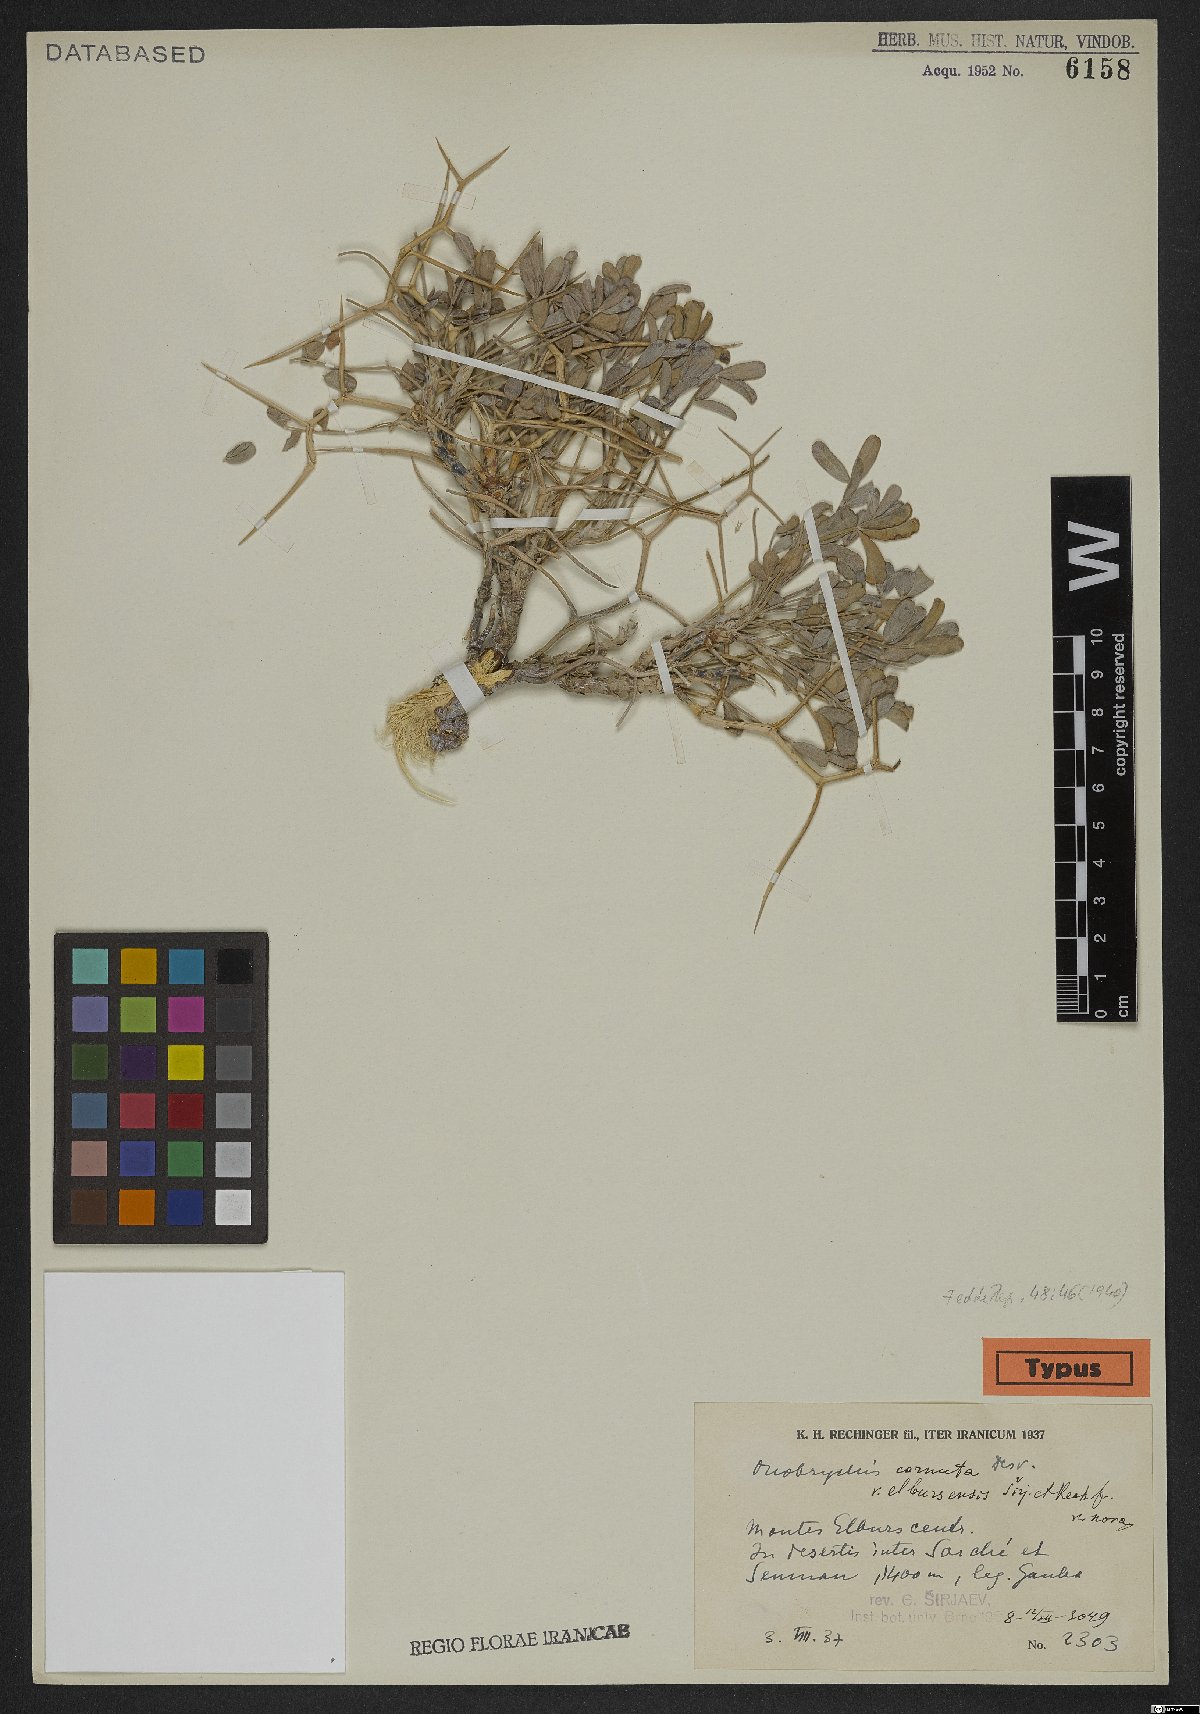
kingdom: Plantae
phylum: Tracheophyta
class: Magnoliopsida
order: Fabales
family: Fabaceae
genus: Onobrychis
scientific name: Onobrychis cornuta
